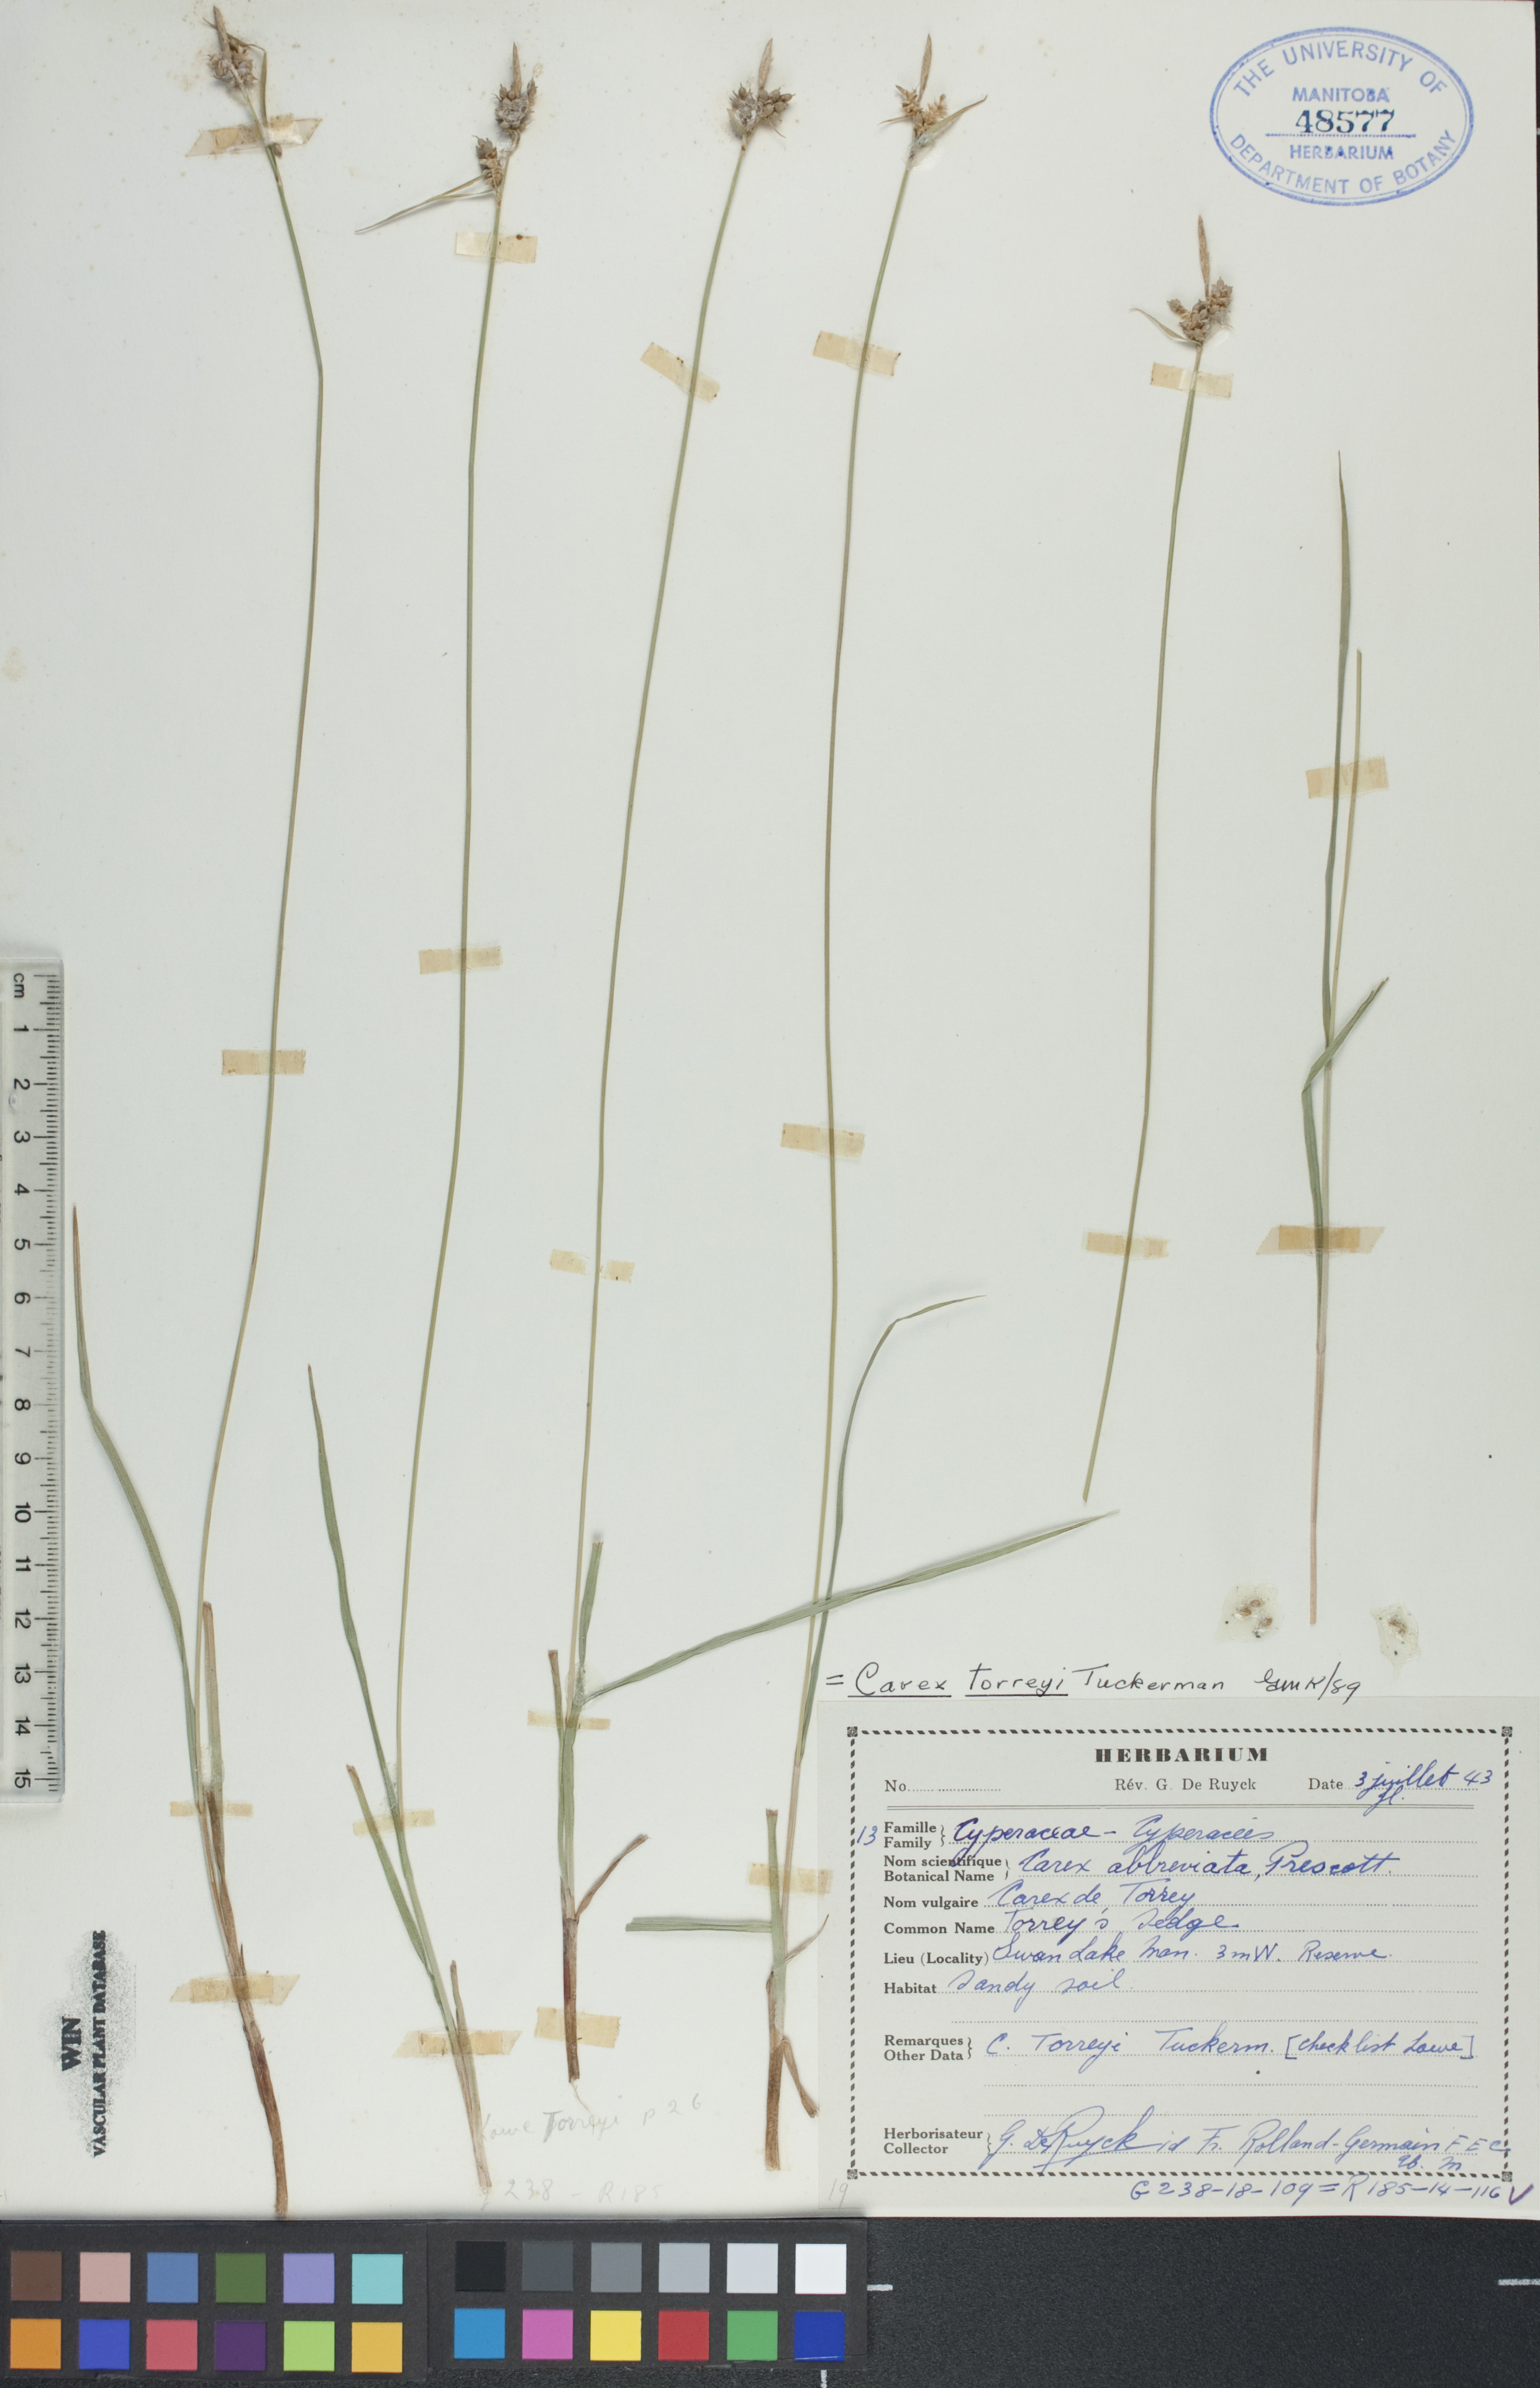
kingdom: Plantae
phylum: Tracheophyta
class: Liliopsida
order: Poales
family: Cyperaceae
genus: Carex
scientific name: Carex torreyi
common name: Torrey's sedge
